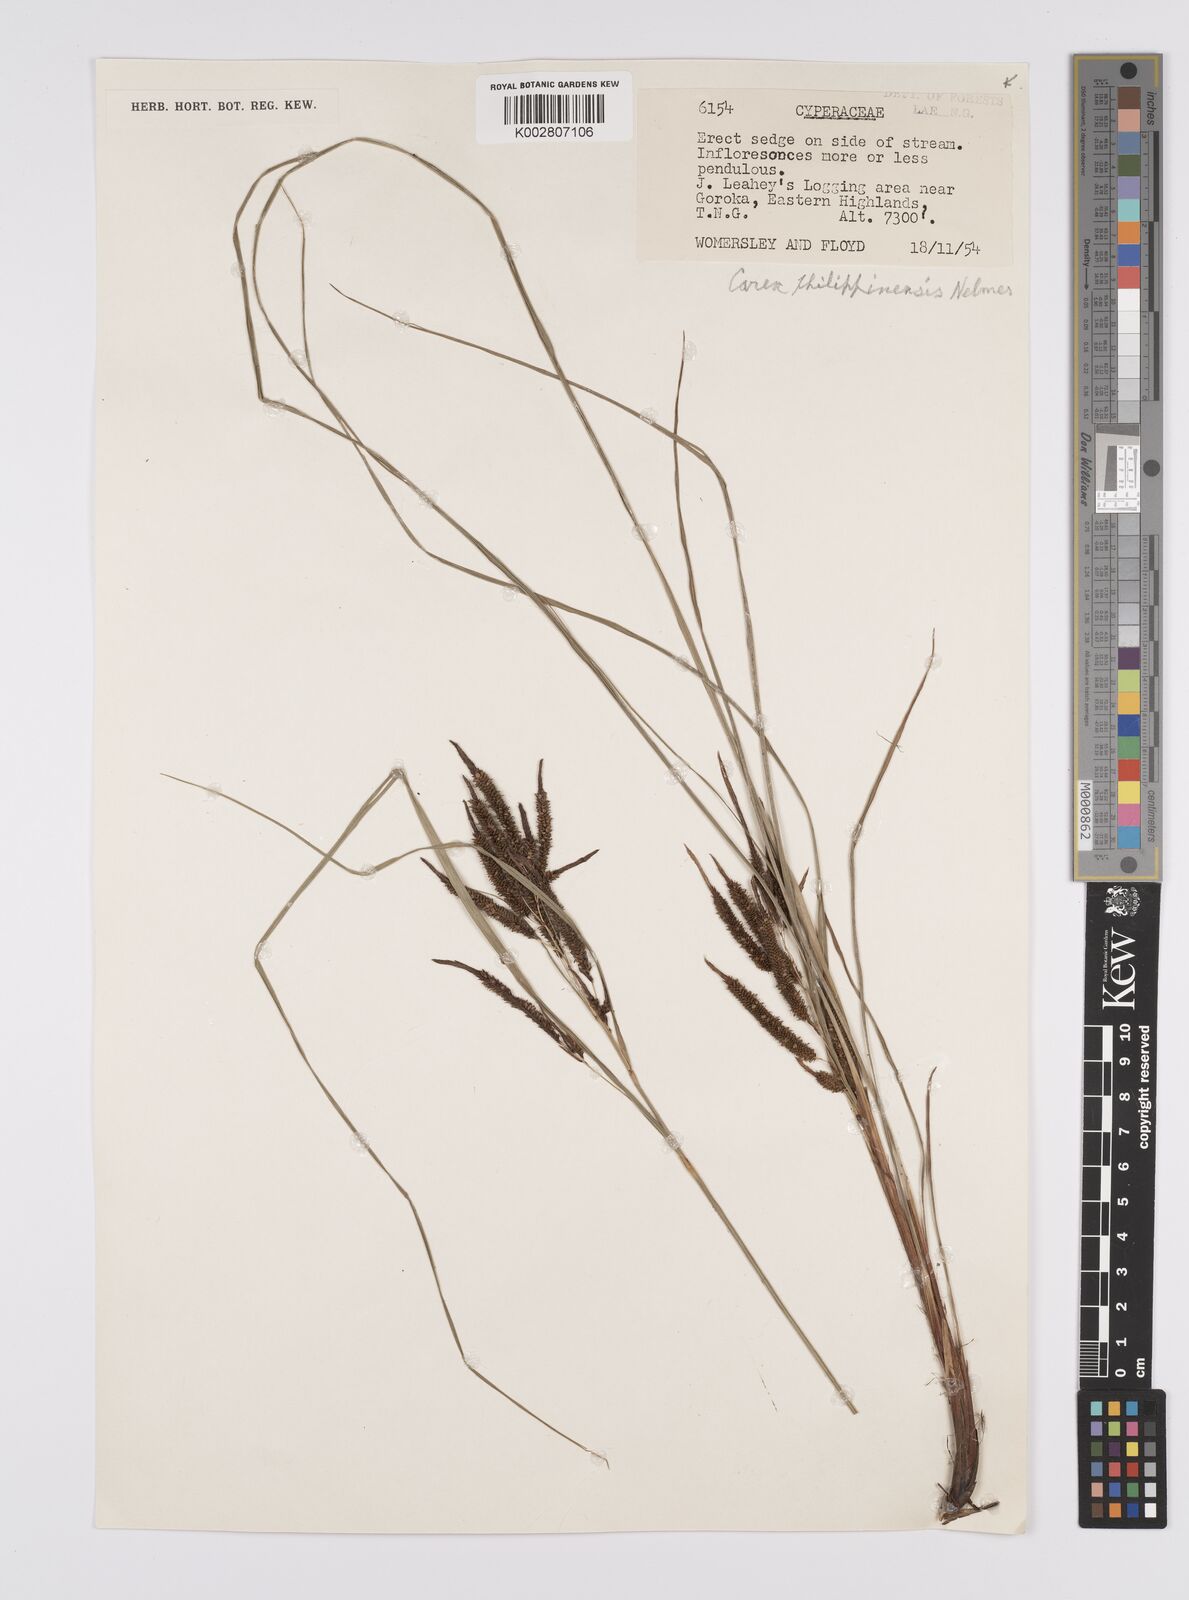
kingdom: Plantae
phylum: Tracheophyta
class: Liliopsida
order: Poales
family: Cyperaceae
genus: Carex
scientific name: Carex graeffeana
